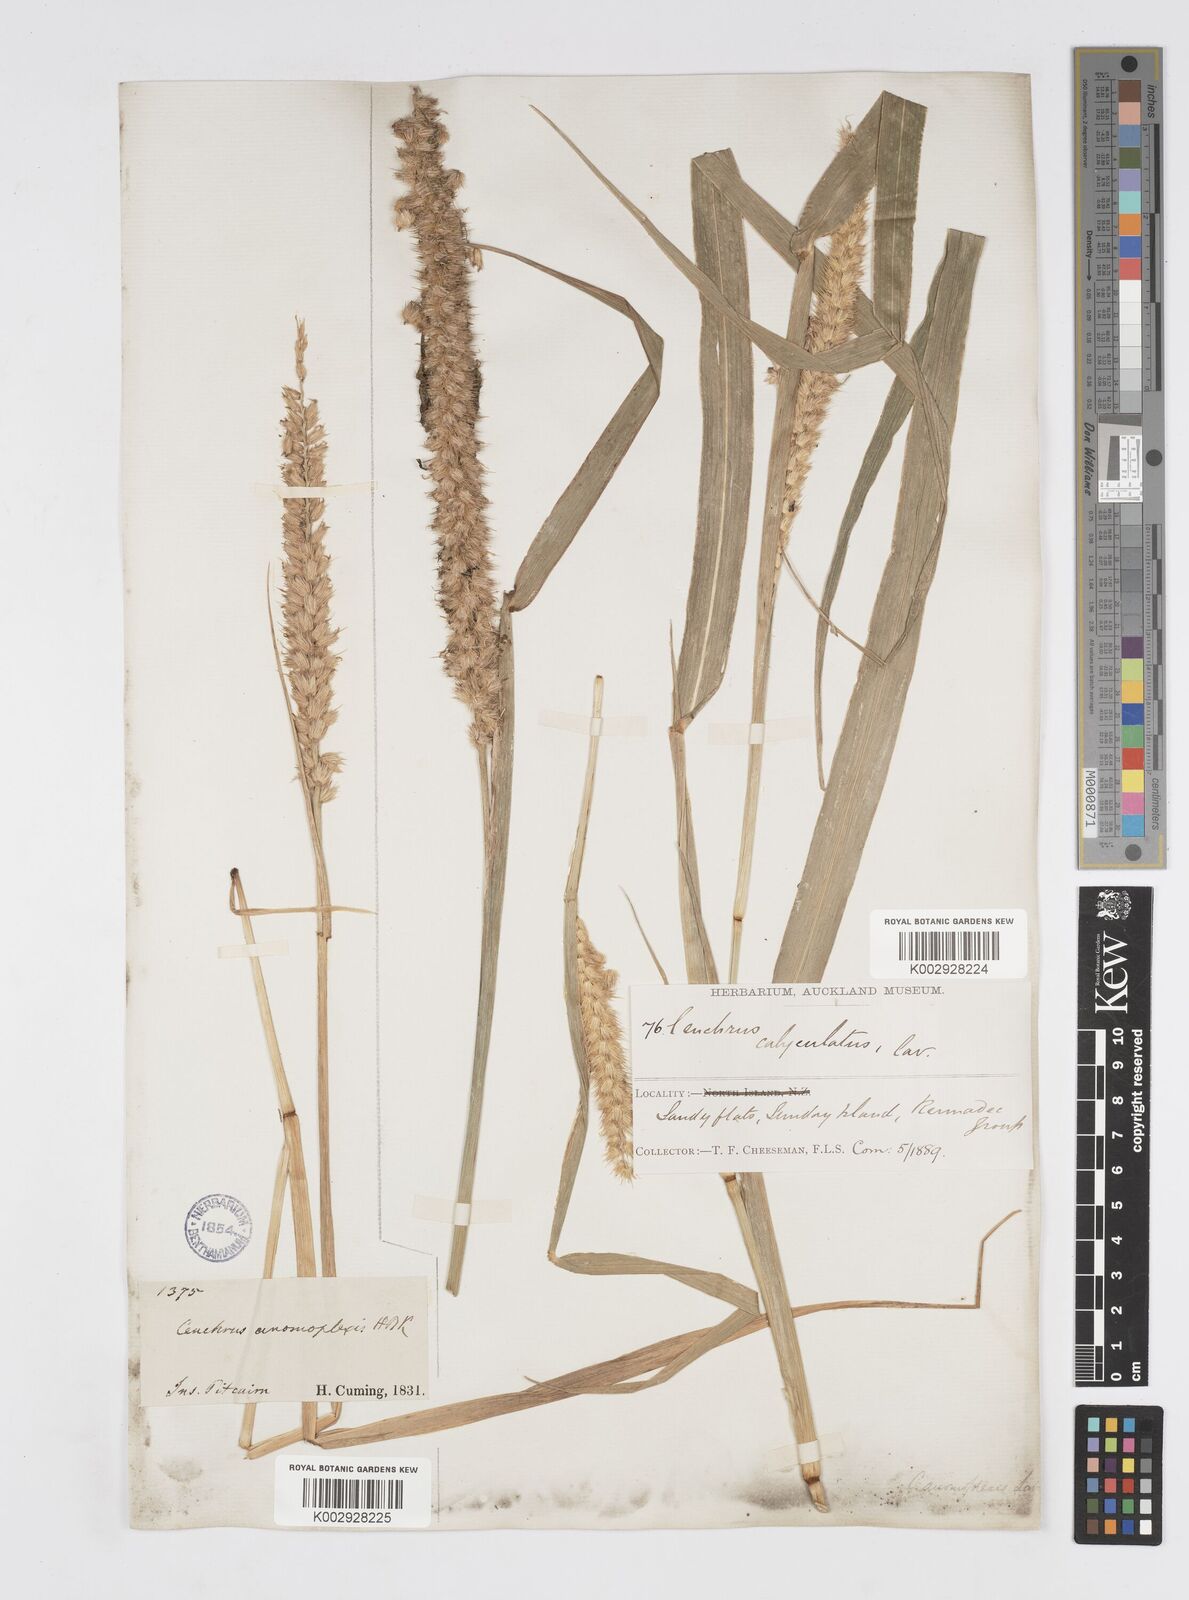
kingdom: Plantae
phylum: Tracheophyta
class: Liliopsida
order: Poales
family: Poaceae
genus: Cenchrus
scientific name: Cenchrus caliculatus
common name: Large bur grass
